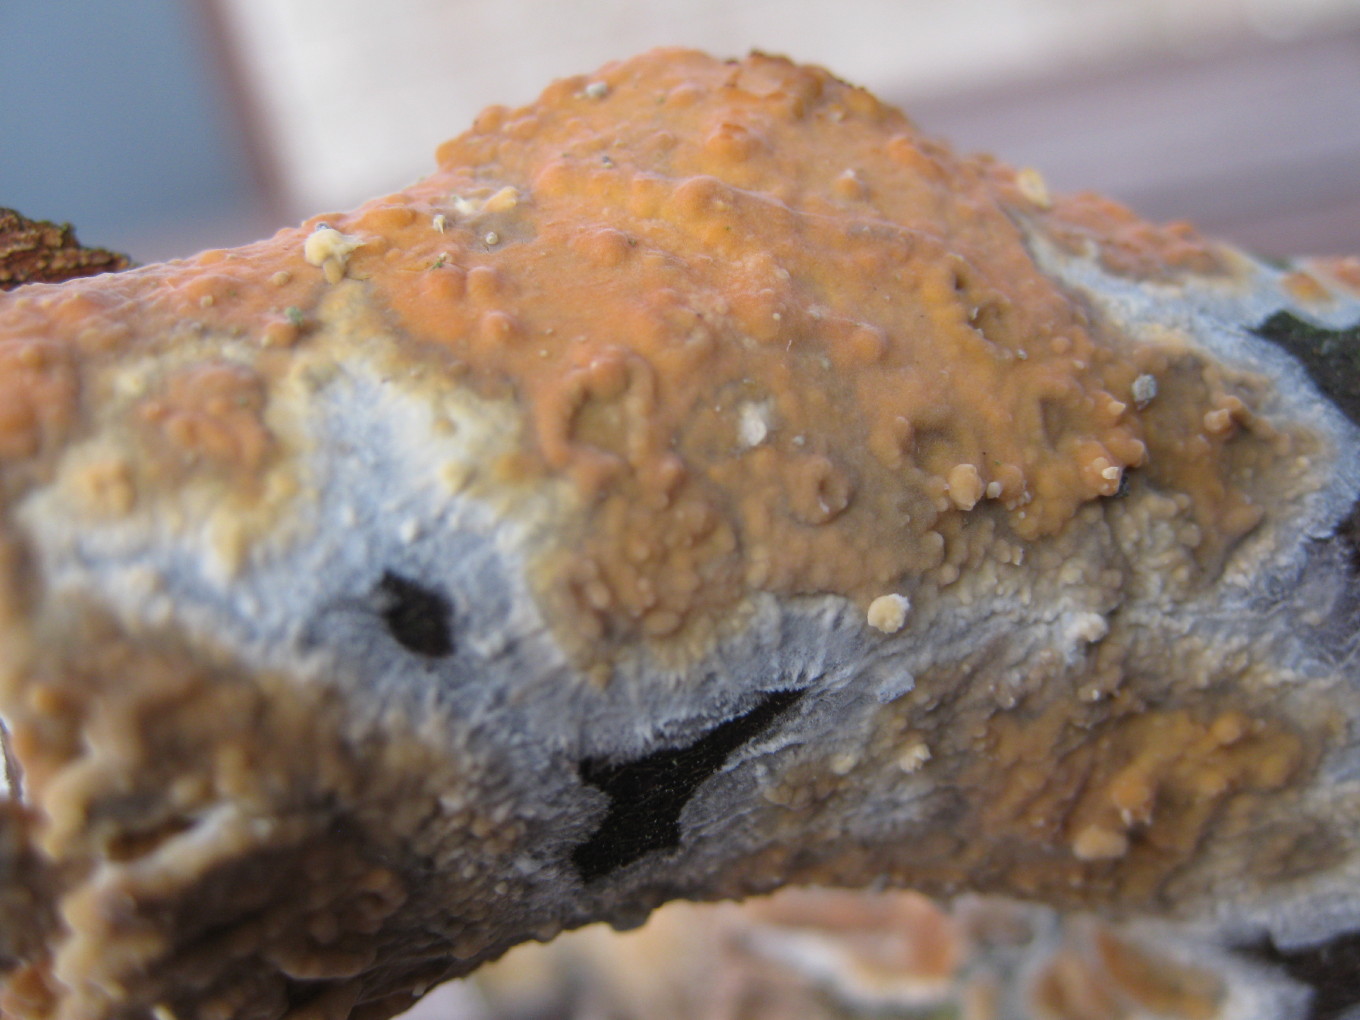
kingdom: Fungi
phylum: Basidiomycota
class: Agaricomycetes
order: Russulales
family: Peniophoraceae
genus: Peniophora
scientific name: Peniophora incarnata
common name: laksefarvet voksskind
